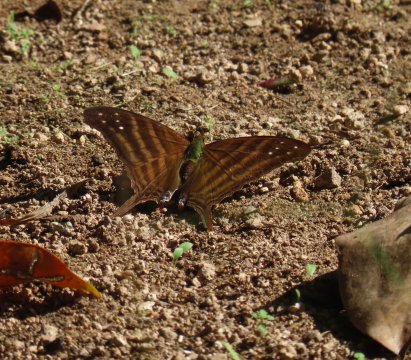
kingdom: Animalia
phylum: Arthropoda
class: Insecta
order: Lepidoptera
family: Nymphalidae
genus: Marpesia
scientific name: Marpesia chiron
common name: Many-banded Daggerwing
